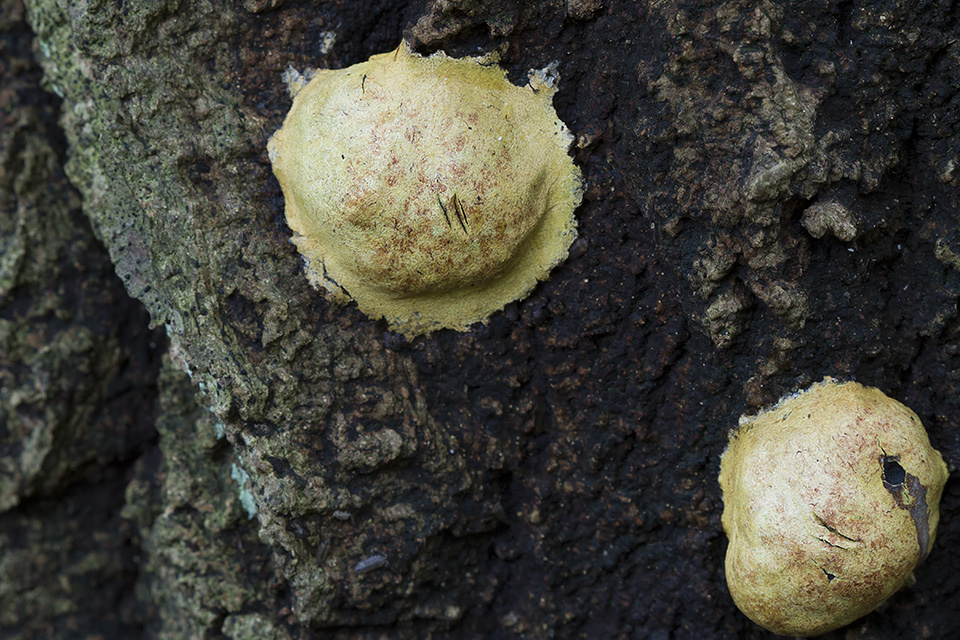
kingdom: Protozoa
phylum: Mycetozoa
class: Myxomycetes
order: Physarales
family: Physaraceae
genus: Fuligo
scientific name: Fuligo leviderma
